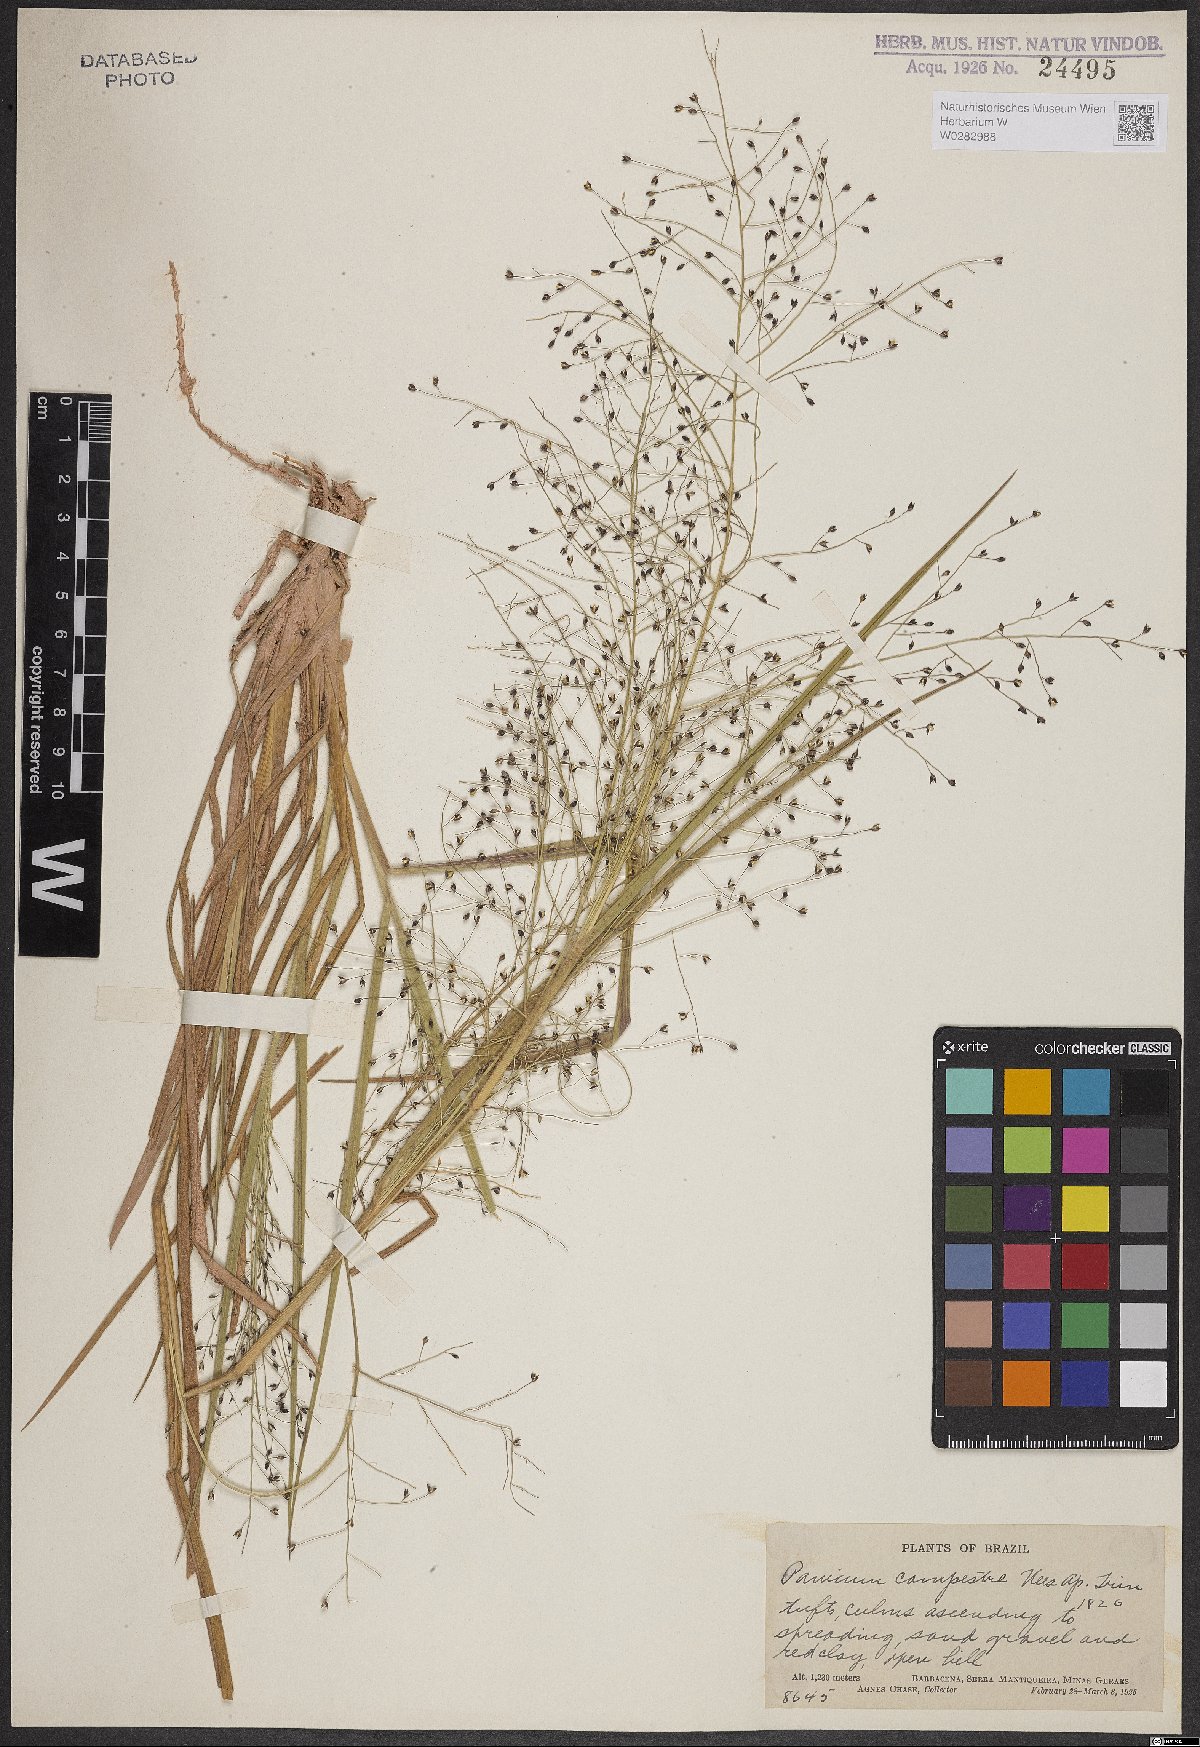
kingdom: Plantae
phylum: Tracheophyta
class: Liliopsida
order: Poales
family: Poaceae
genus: Panicum
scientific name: Panicum peladoense
